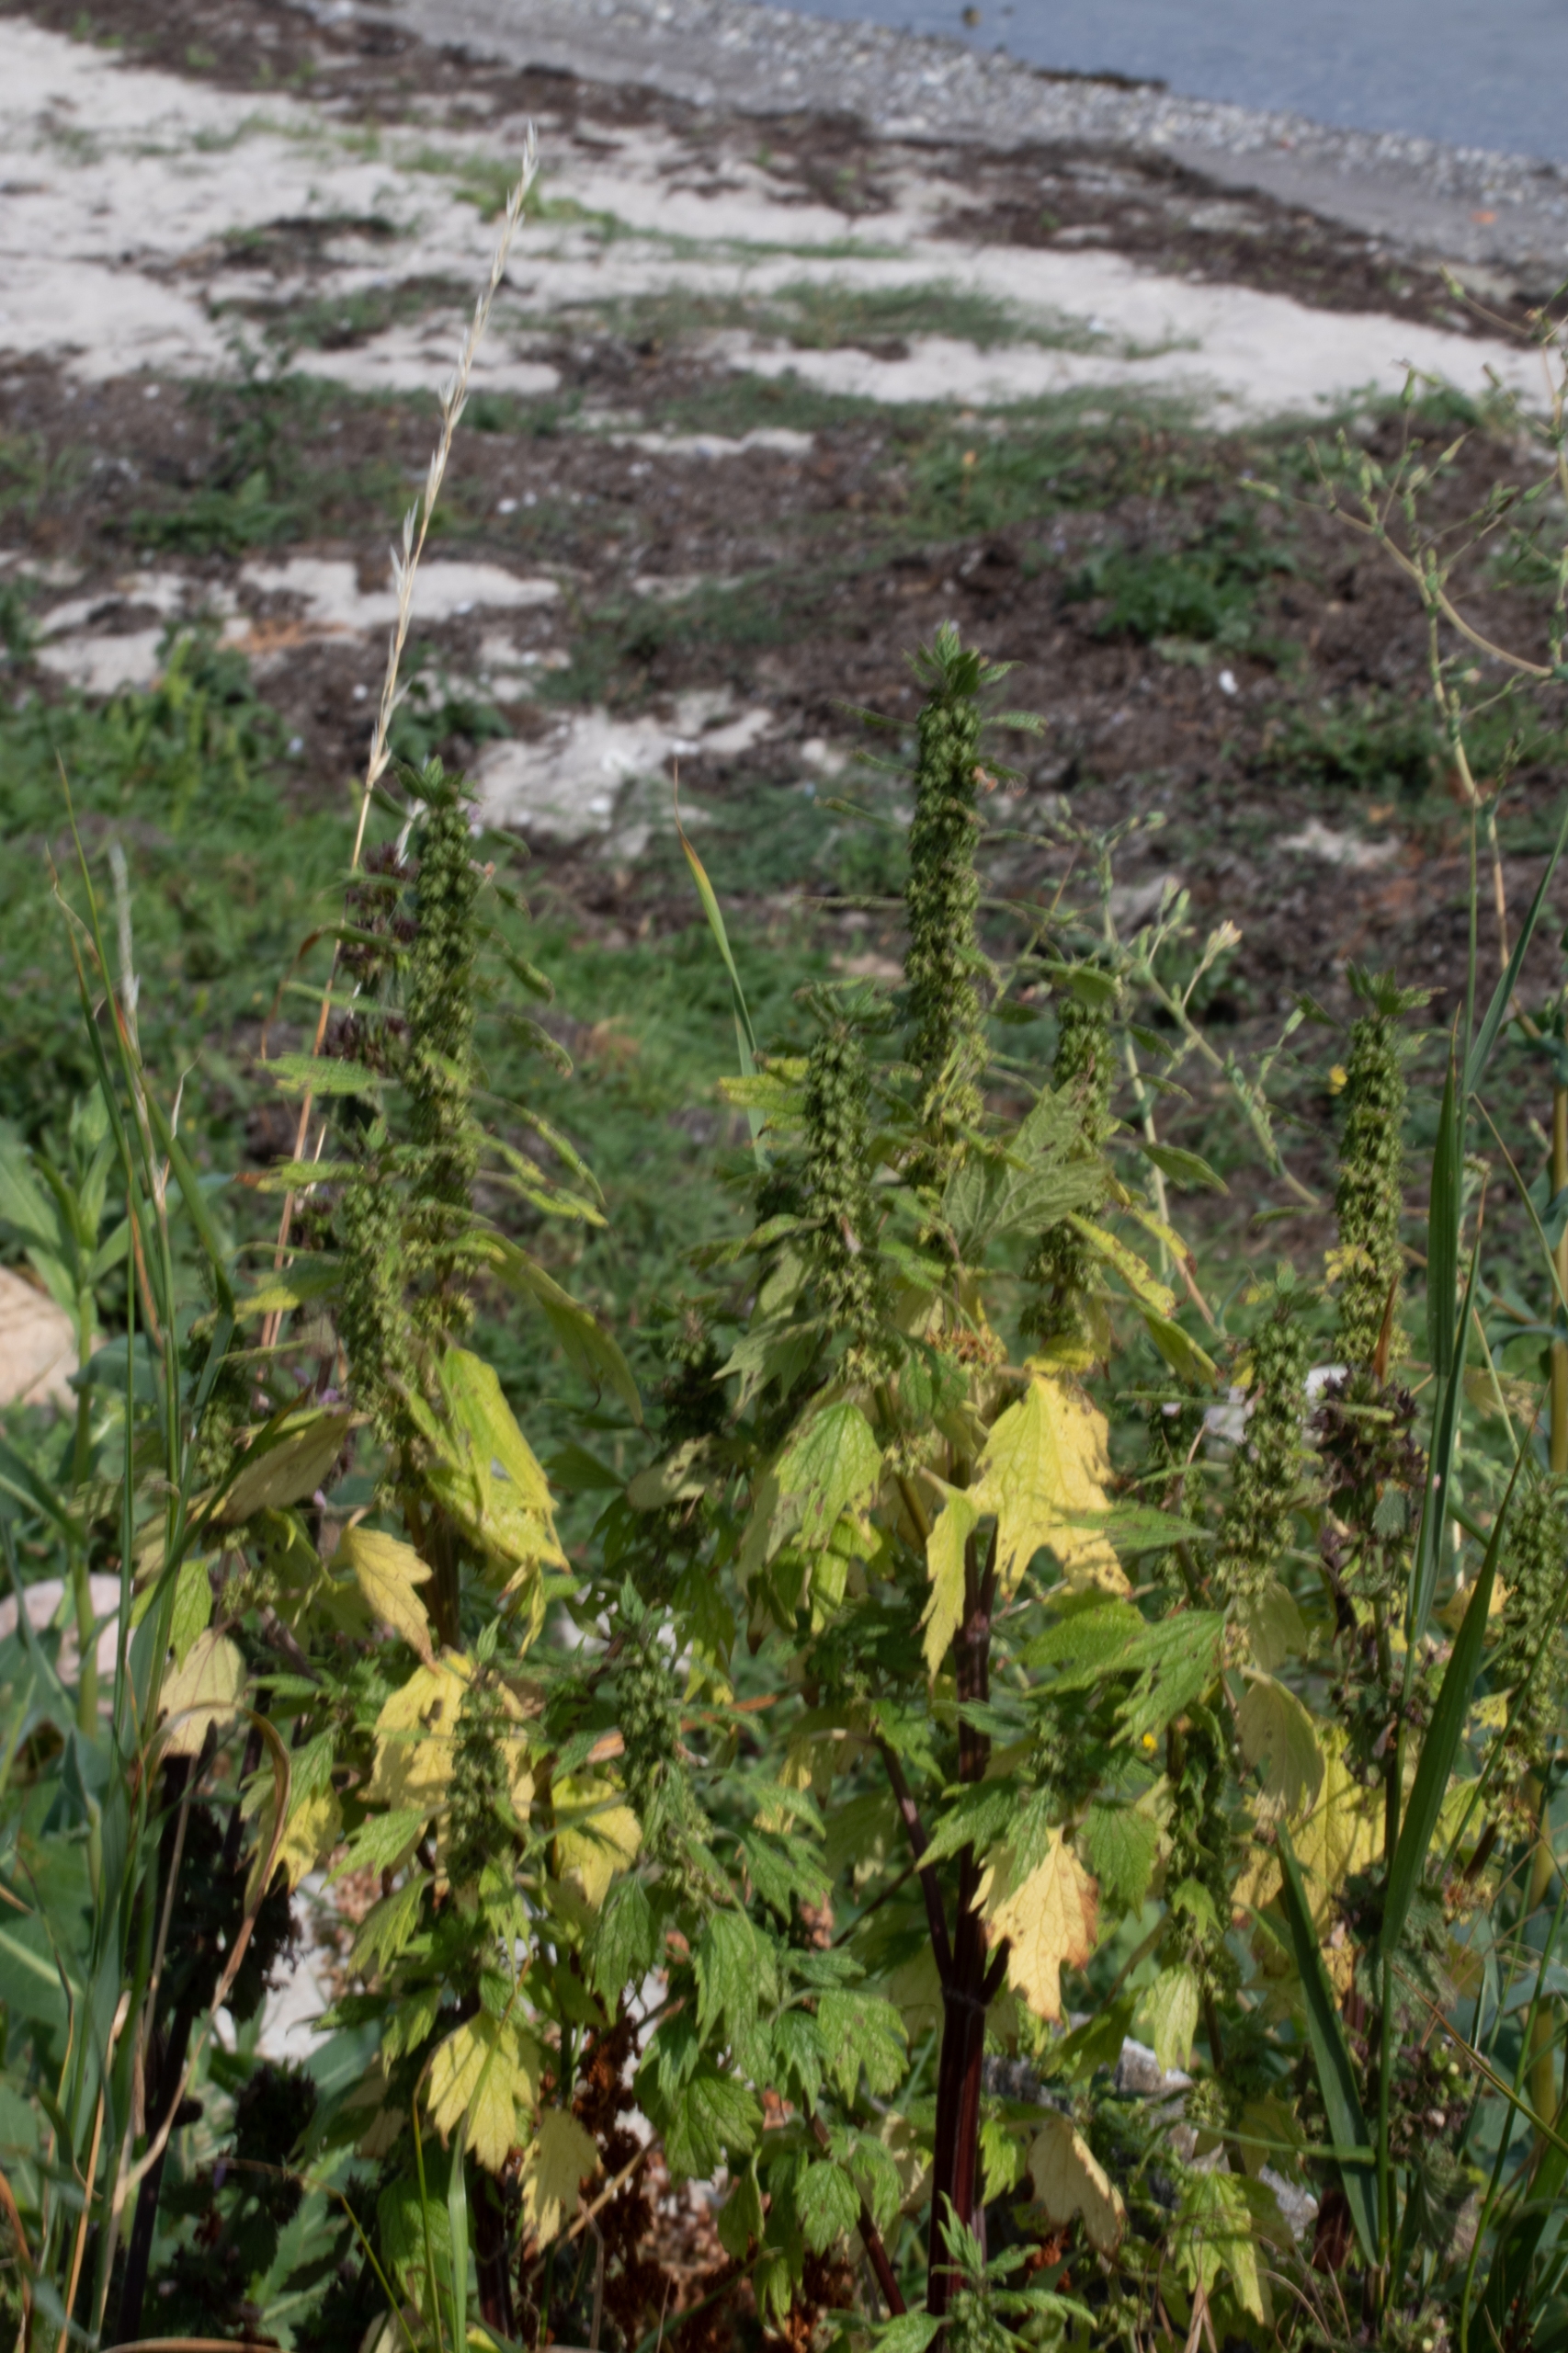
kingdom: Plantae
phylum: Tracheophyta
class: Magnoliopsida
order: Lamiales
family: Lamiaceae
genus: Leonurus
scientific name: Leonurus cardiaca
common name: Hjertespand
